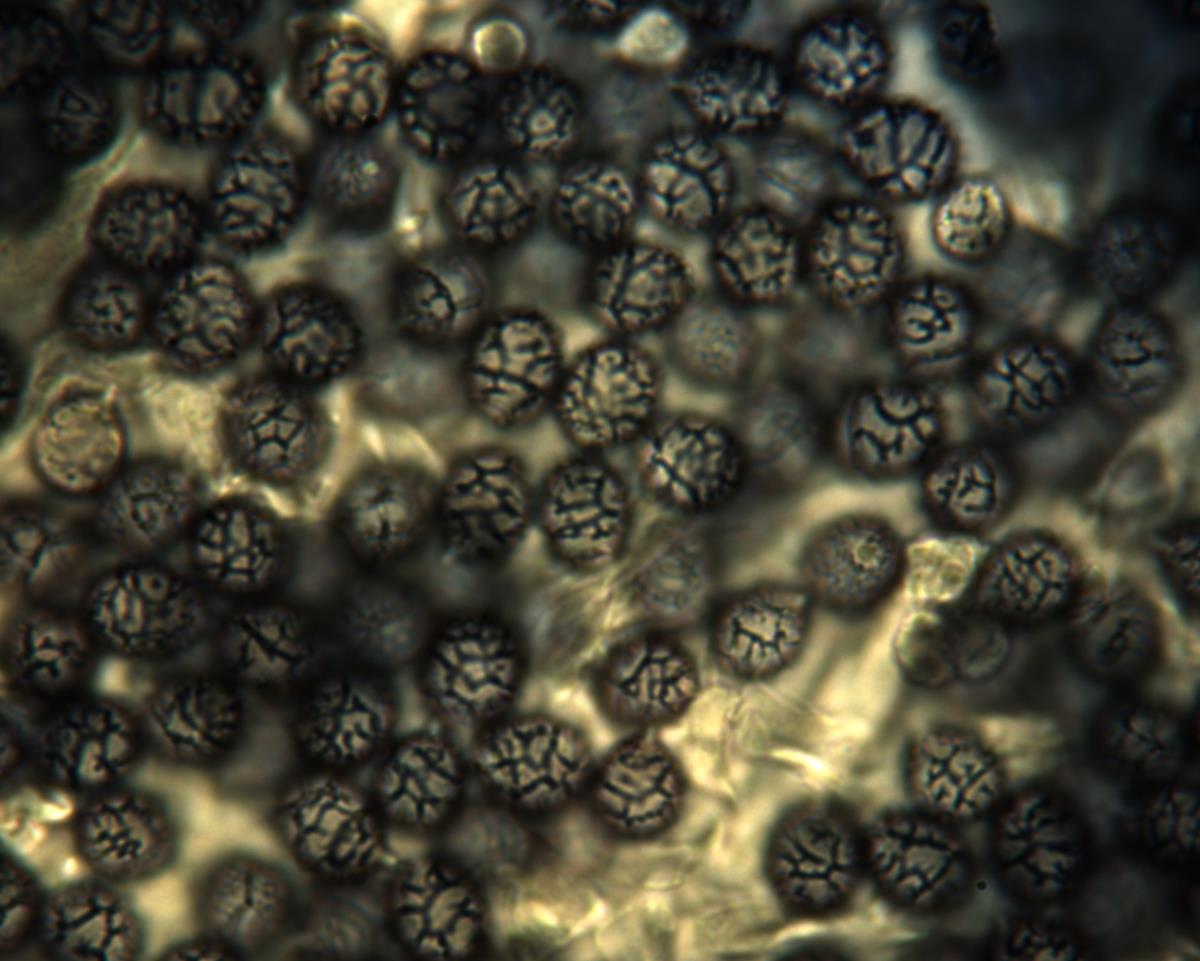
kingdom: Fungi
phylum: Basidiomycota
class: Agaricomycetes
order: Russulales
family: Russulaceae
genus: Zelleromyces
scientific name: Zelleromyces
